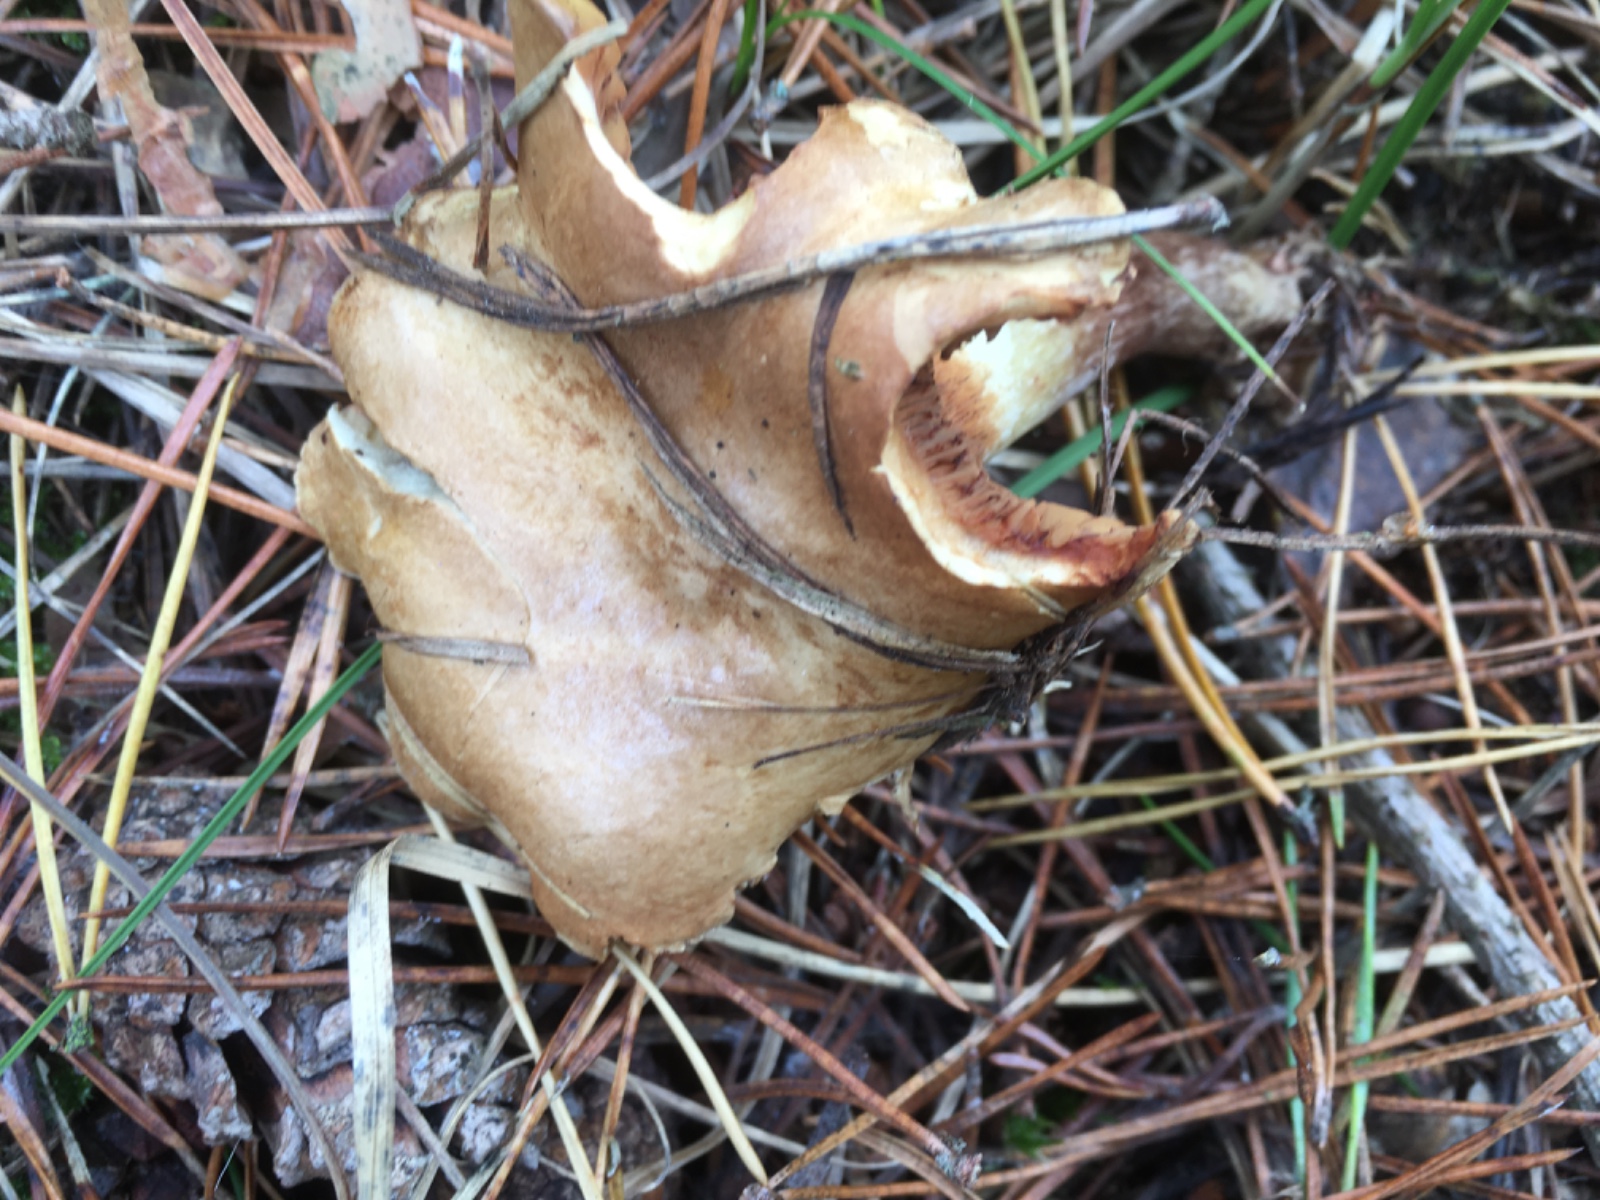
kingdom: Fungi
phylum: Basidiomycota
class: Agaricomycetes
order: Boletales
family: Paxillaceae
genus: Paxillus
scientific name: Paxillus involutus
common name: almindelig netbladhat
